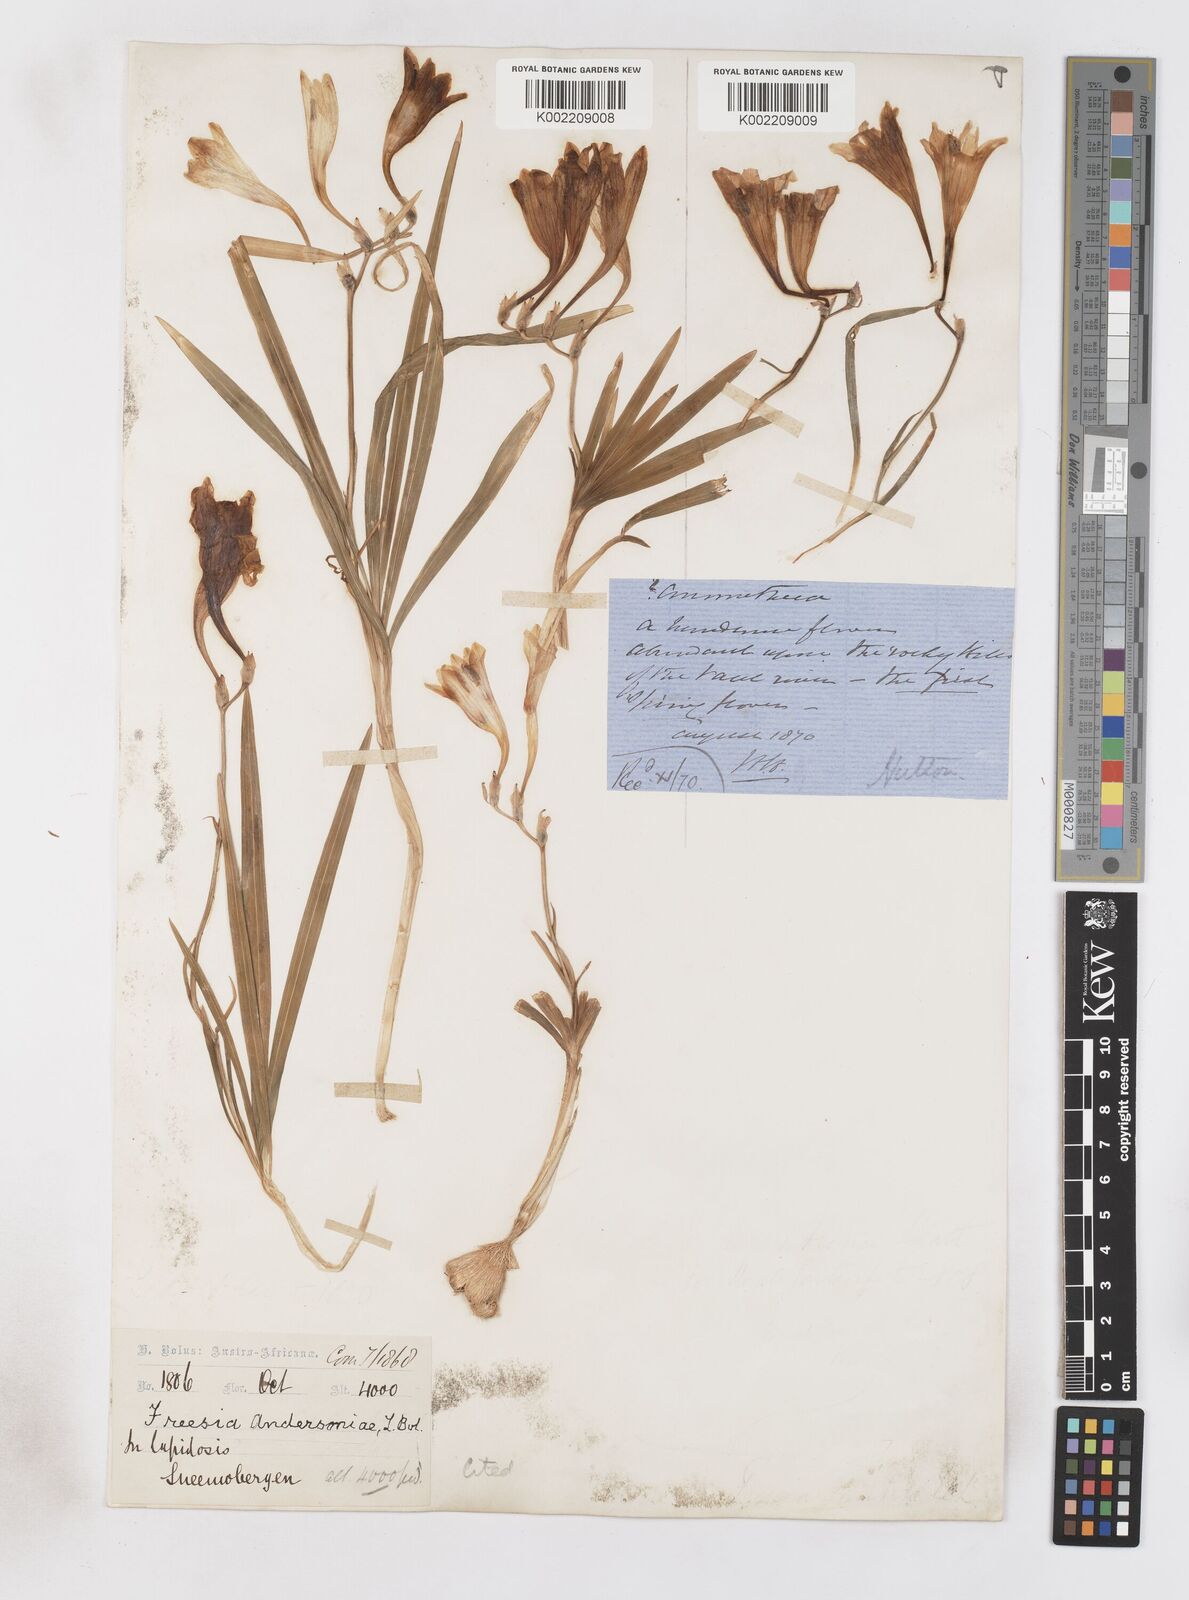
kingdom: Plantae
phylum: Tracheophyta
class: Liliopsida
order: Asparagales
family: Iridaceae
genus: Freesia
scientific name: Freesia andersoniae
